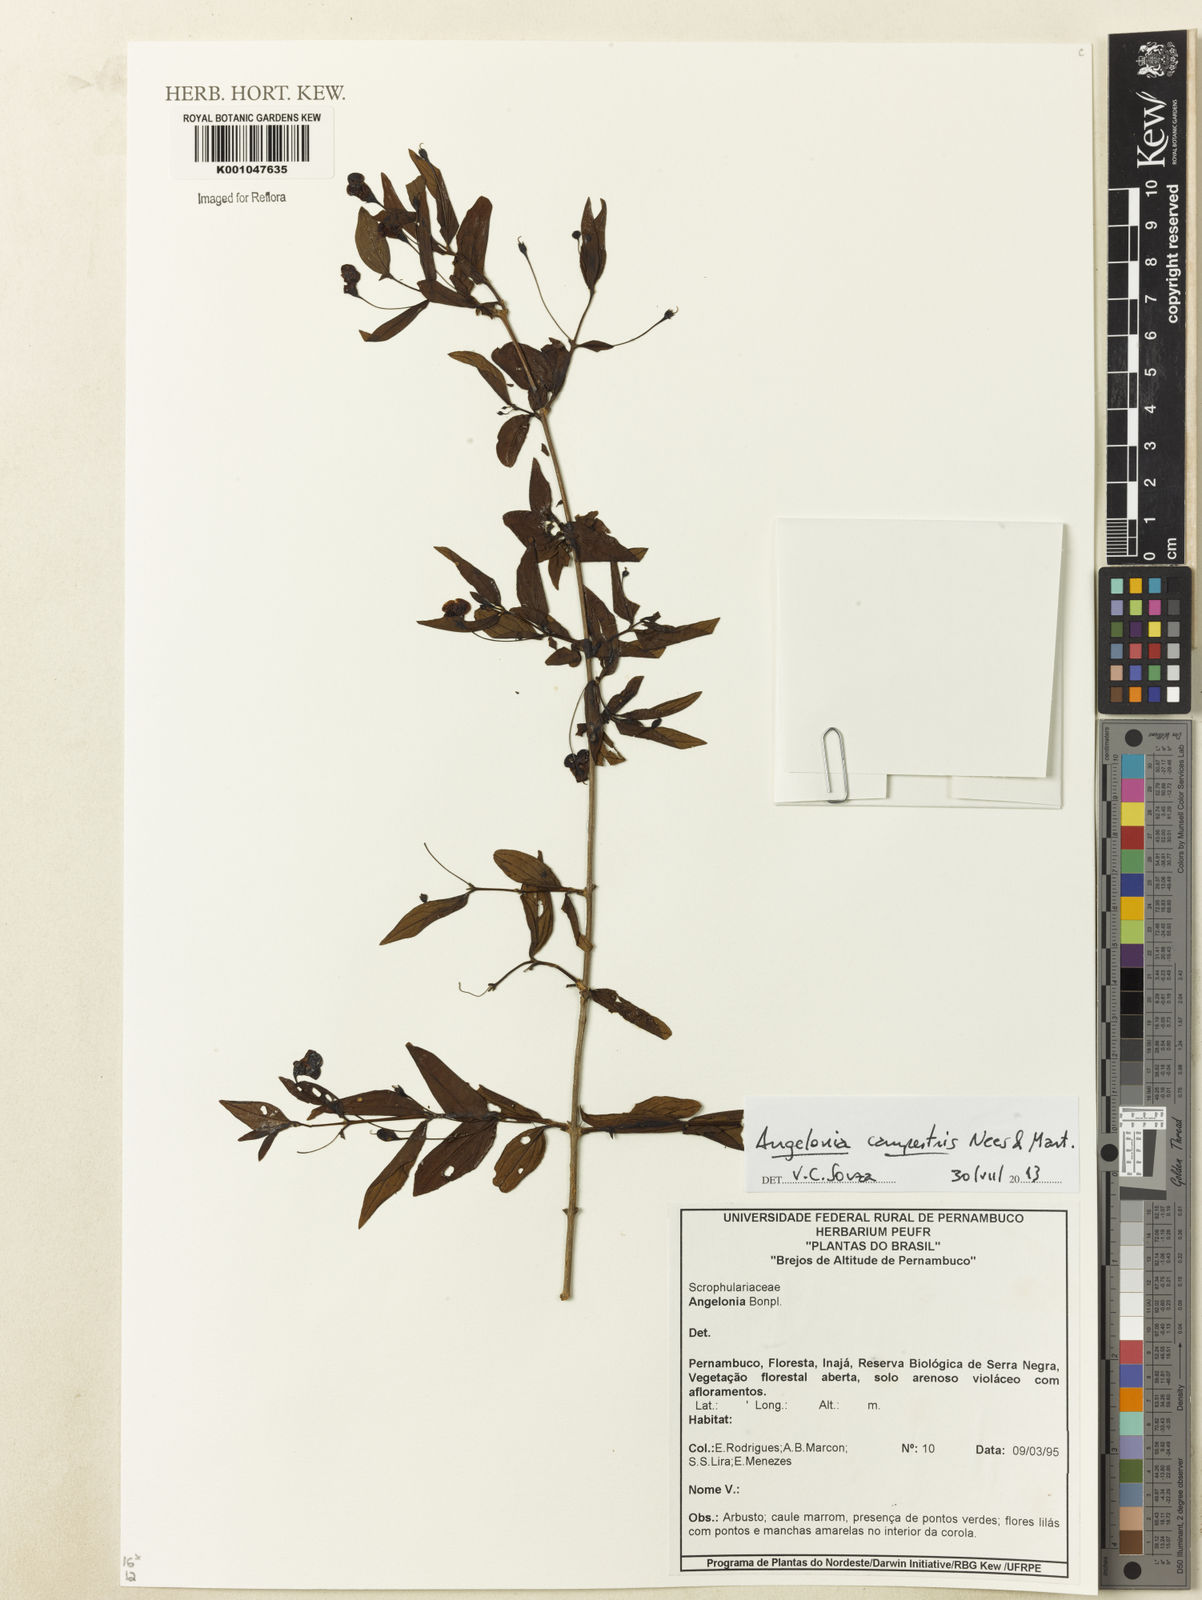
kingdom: Plantae
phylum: Tracheophyta
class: Magnoliopsida
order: Lamiales
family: Plantaginaceae
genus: Angelonia
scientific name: Angelonia campestris
